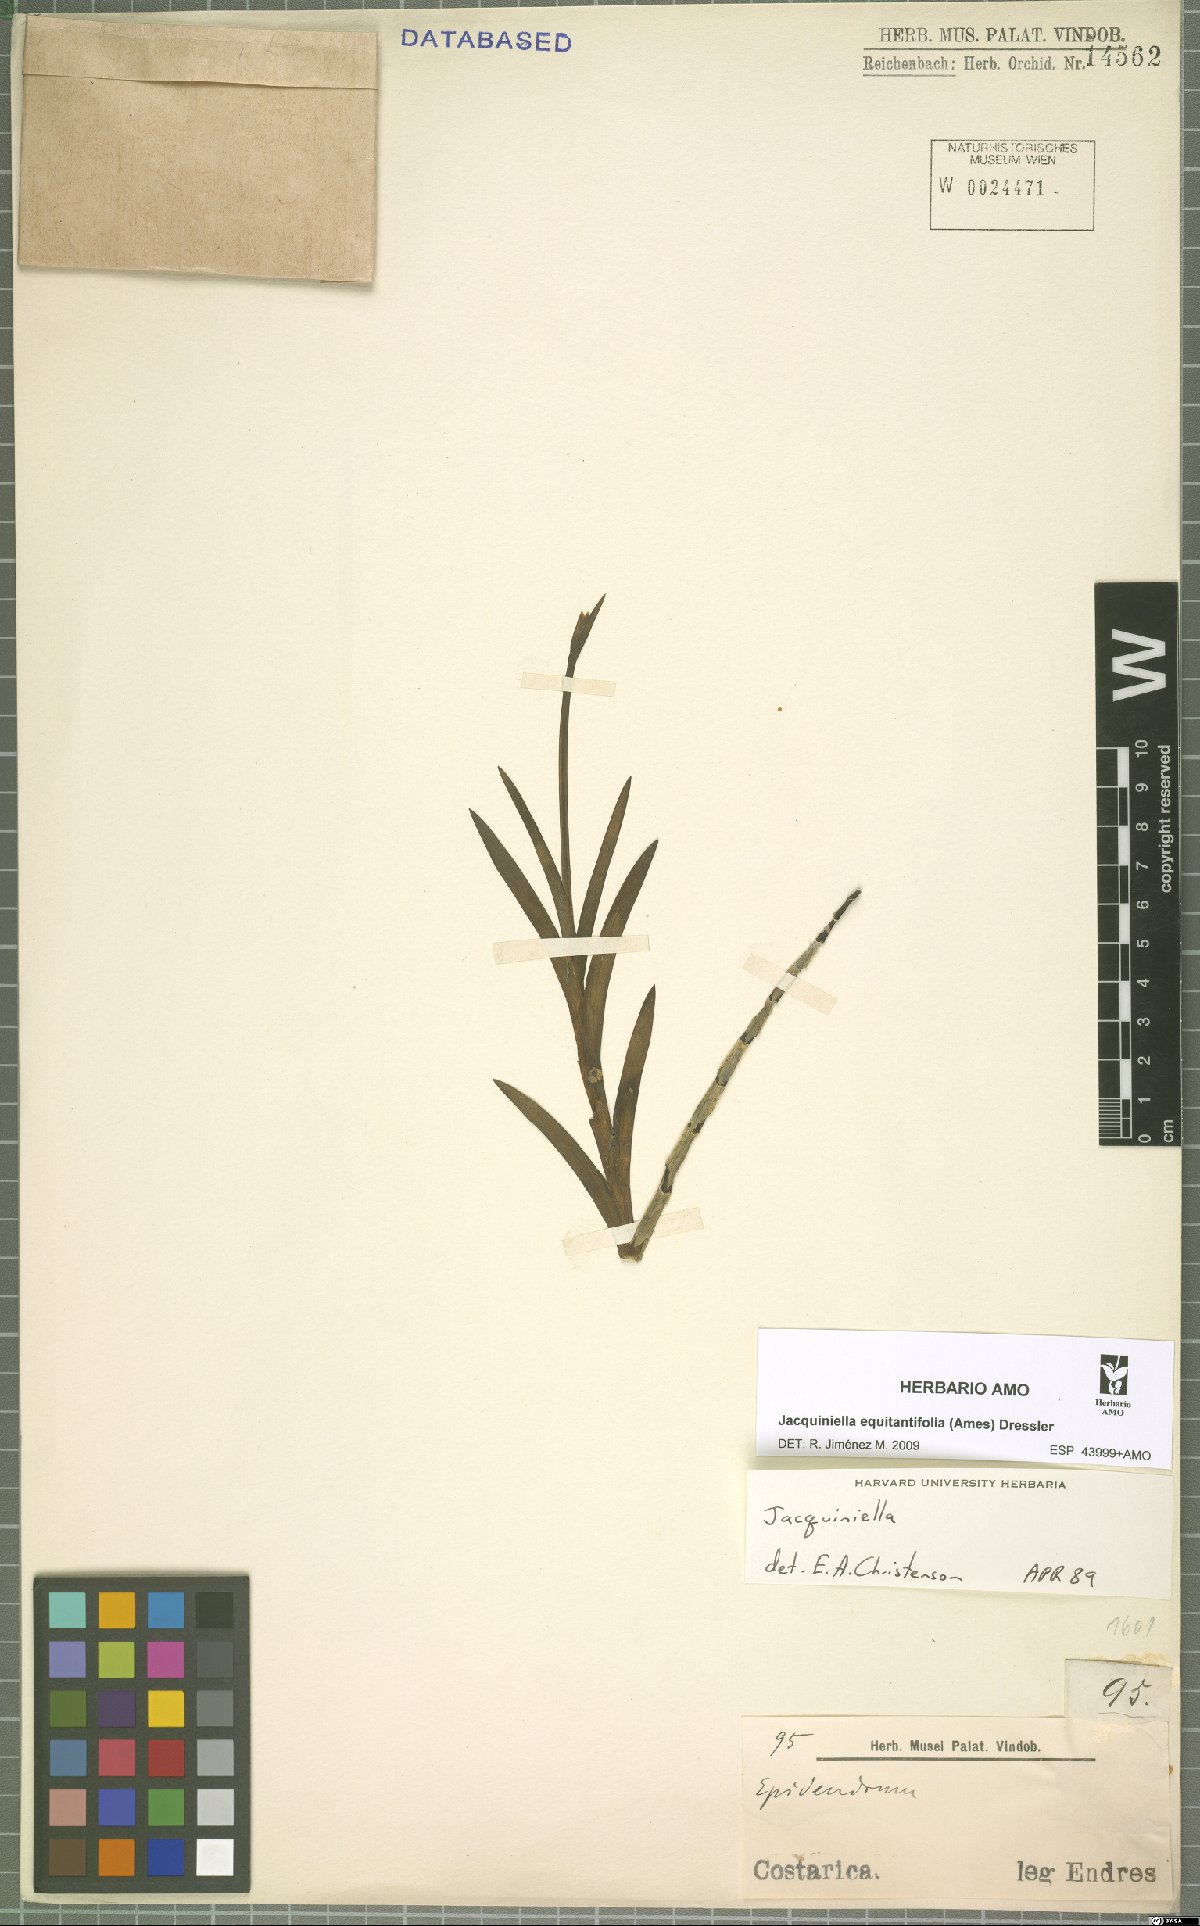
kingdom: Plantae
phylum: Tracheophyta
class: Liliopsida
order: Asparagales
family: Orchidaceae
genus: Jacquiniella
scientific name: Jacquiniella equitantifolia
